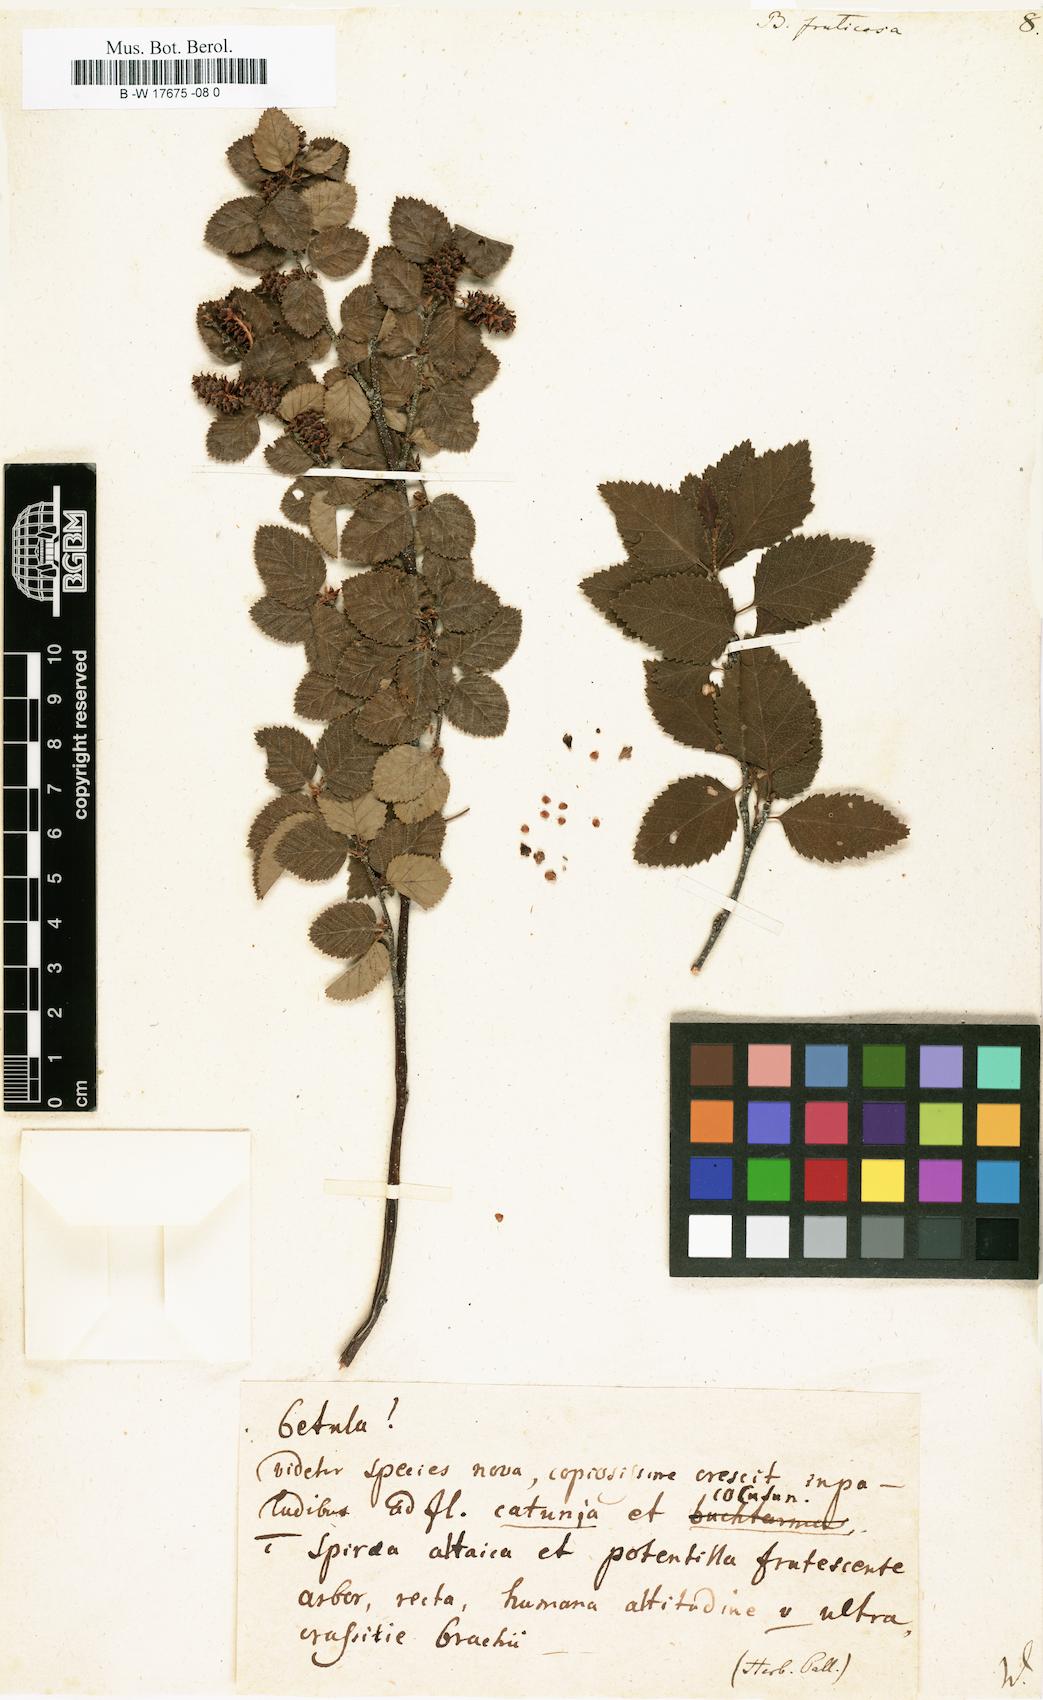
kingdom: Plantae
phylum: Tracheophyta
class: Magnoliopsida
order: Fagales
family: Betulaceae
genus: Betula
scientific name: Betula fruticosa
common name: Japanese bog birch
